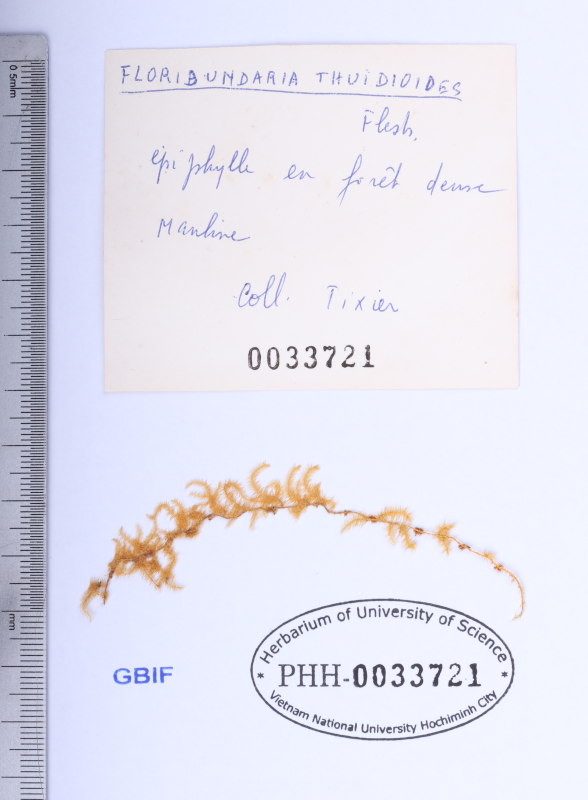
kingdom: Plantae
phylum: Bryophyta
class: Bryopsida
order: Hypnales
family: Meteoriaceae
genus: Floribundaria
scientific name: Floribundaria intermedia
